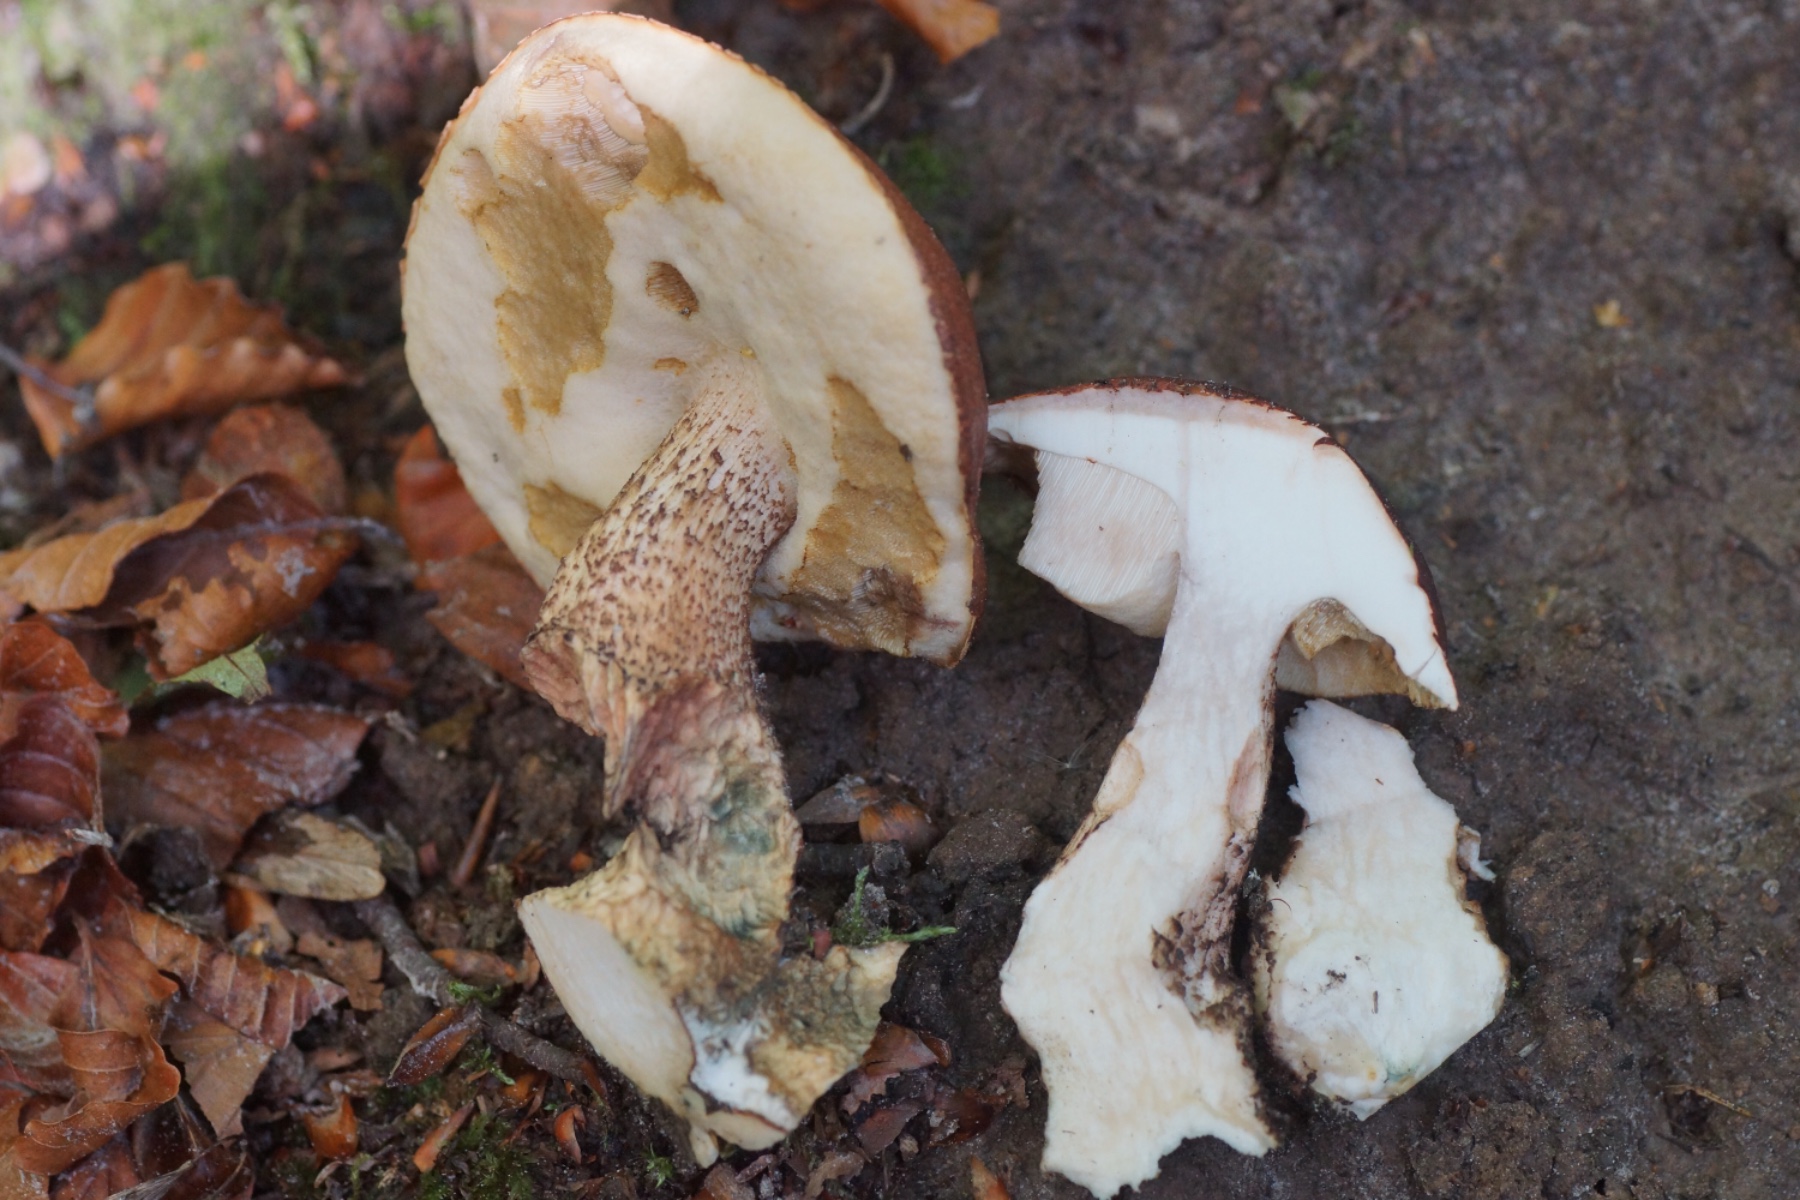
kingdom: Fungi
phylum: Basidiomycota
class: Agaricomycetes
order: Boletales
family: Boletaceae
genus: Leccinum
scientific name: Leccinum aurantiacum
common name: rustrød skælrørhat
